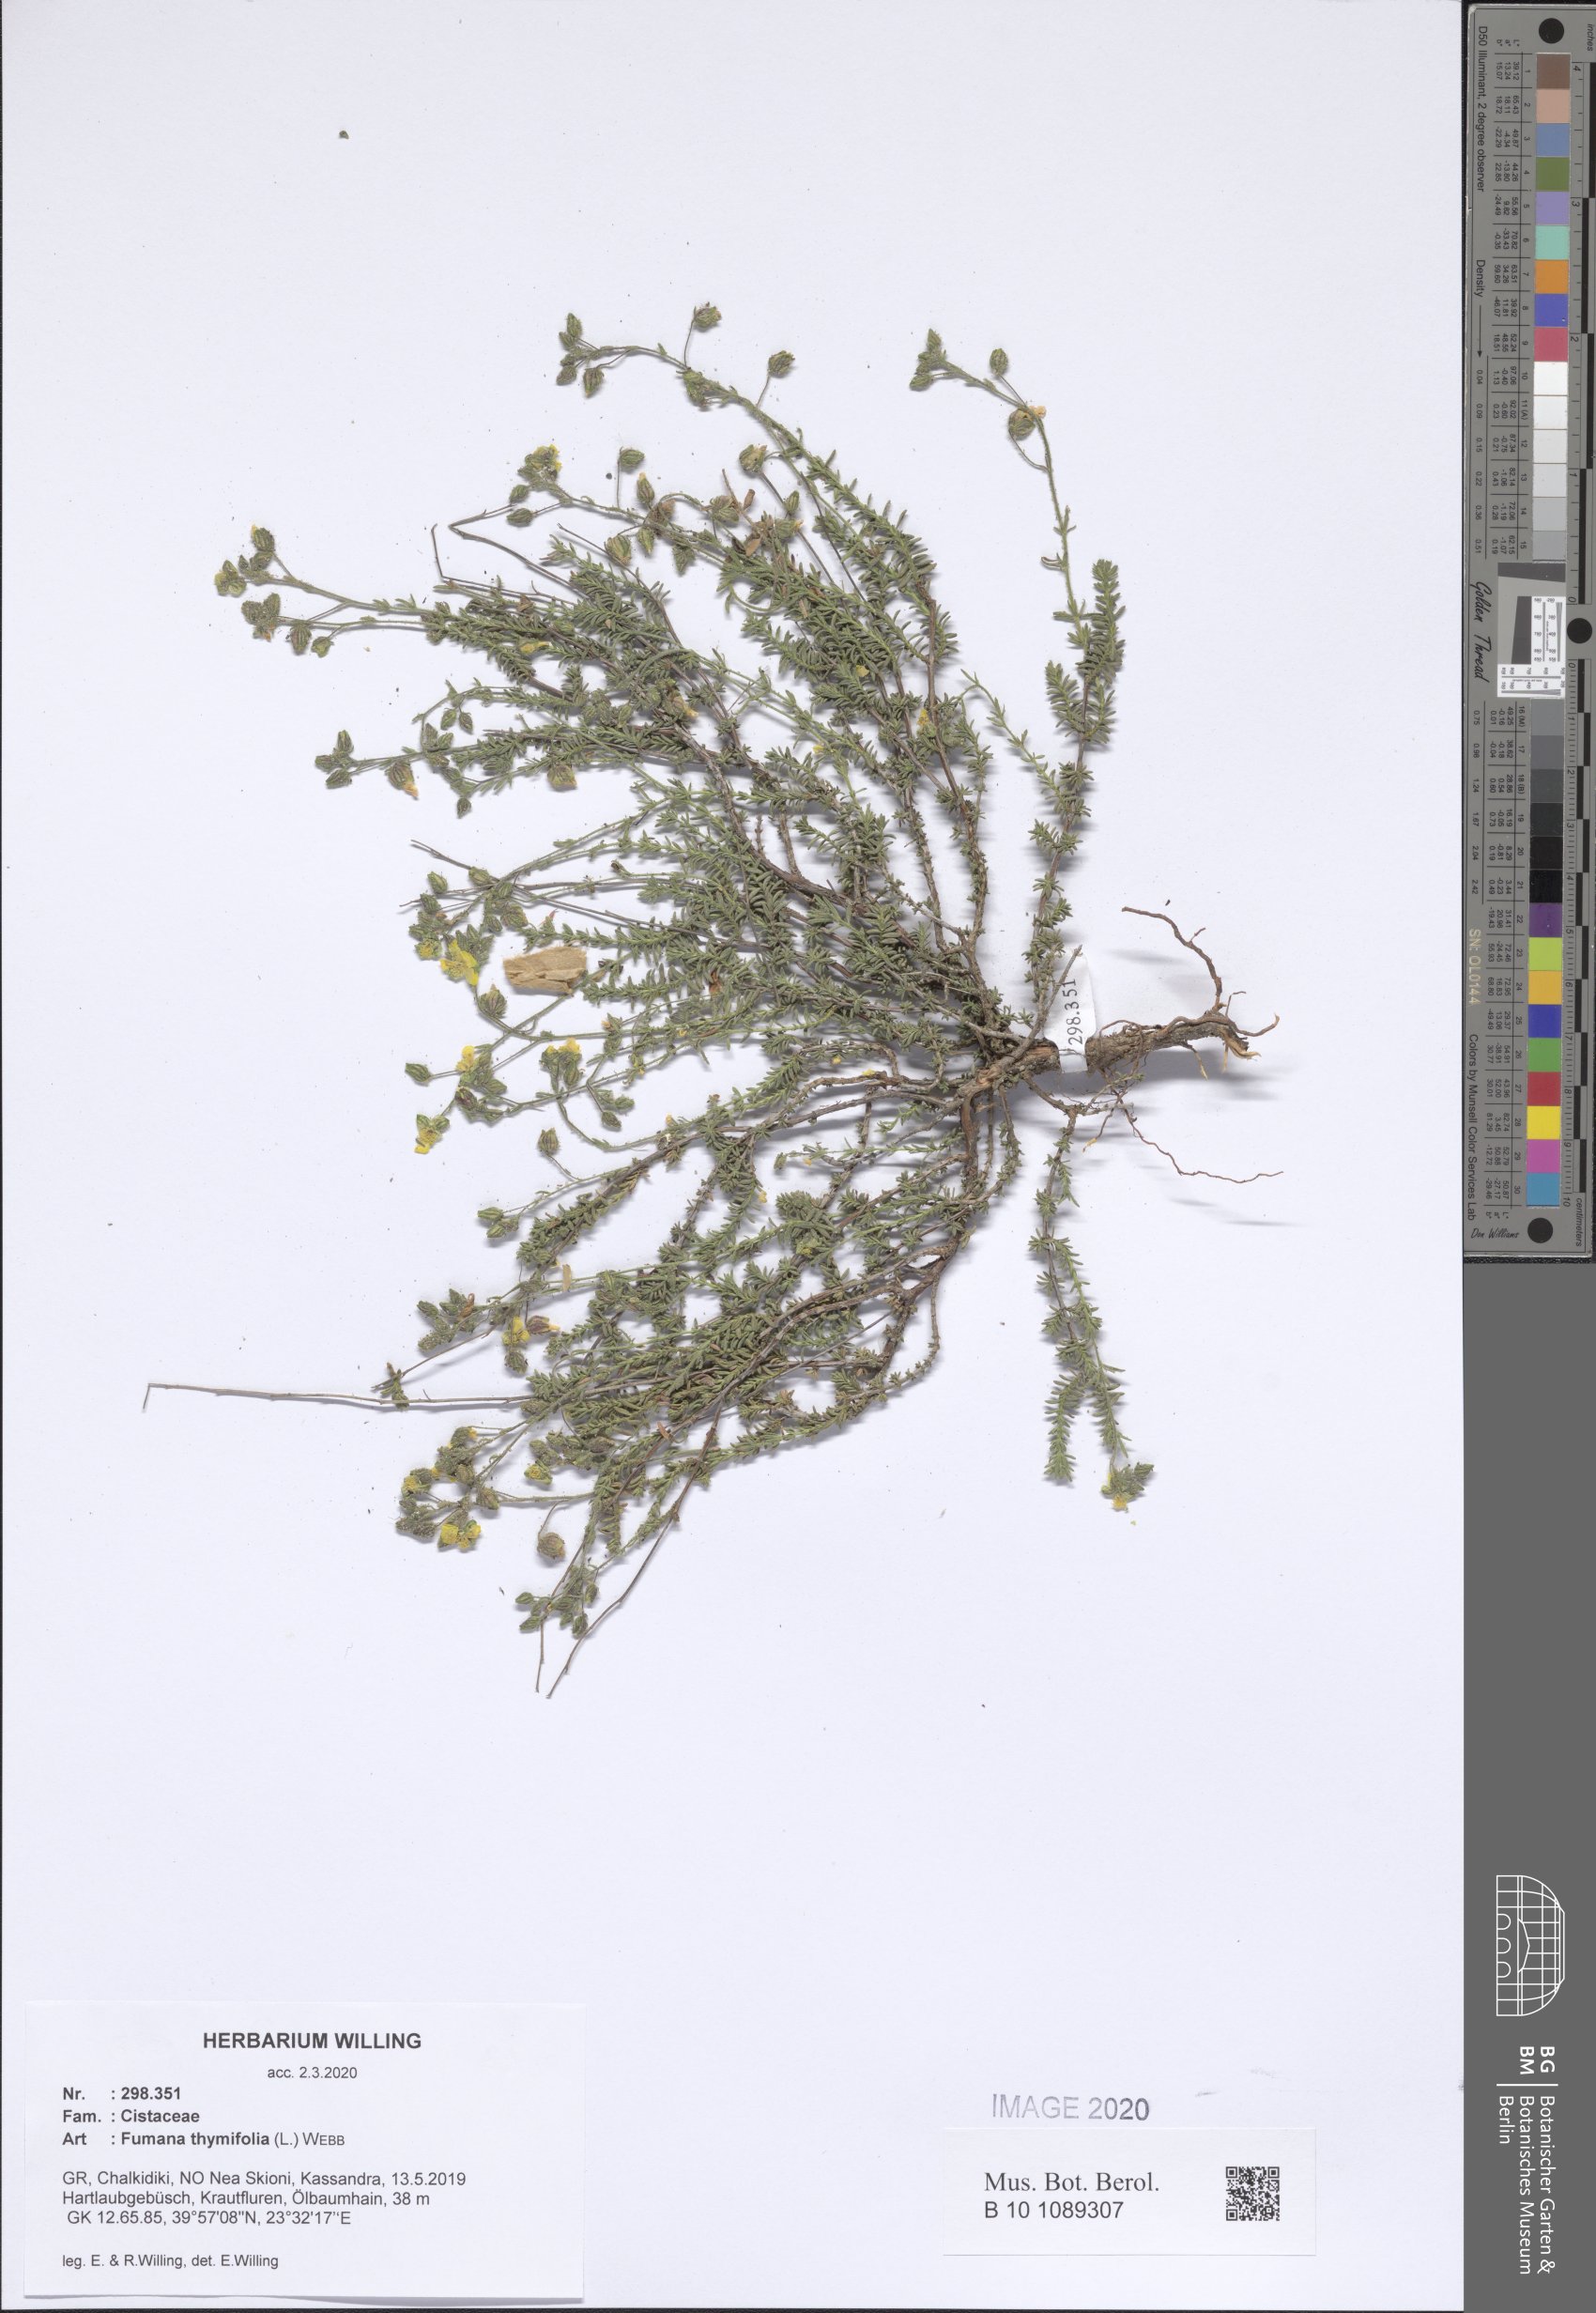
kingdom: Plantae
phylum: Tracheophyta
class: Magnoliopsida
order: Malvales
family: Cistaceae
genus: Fumana
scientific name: Fumana thymifolia
